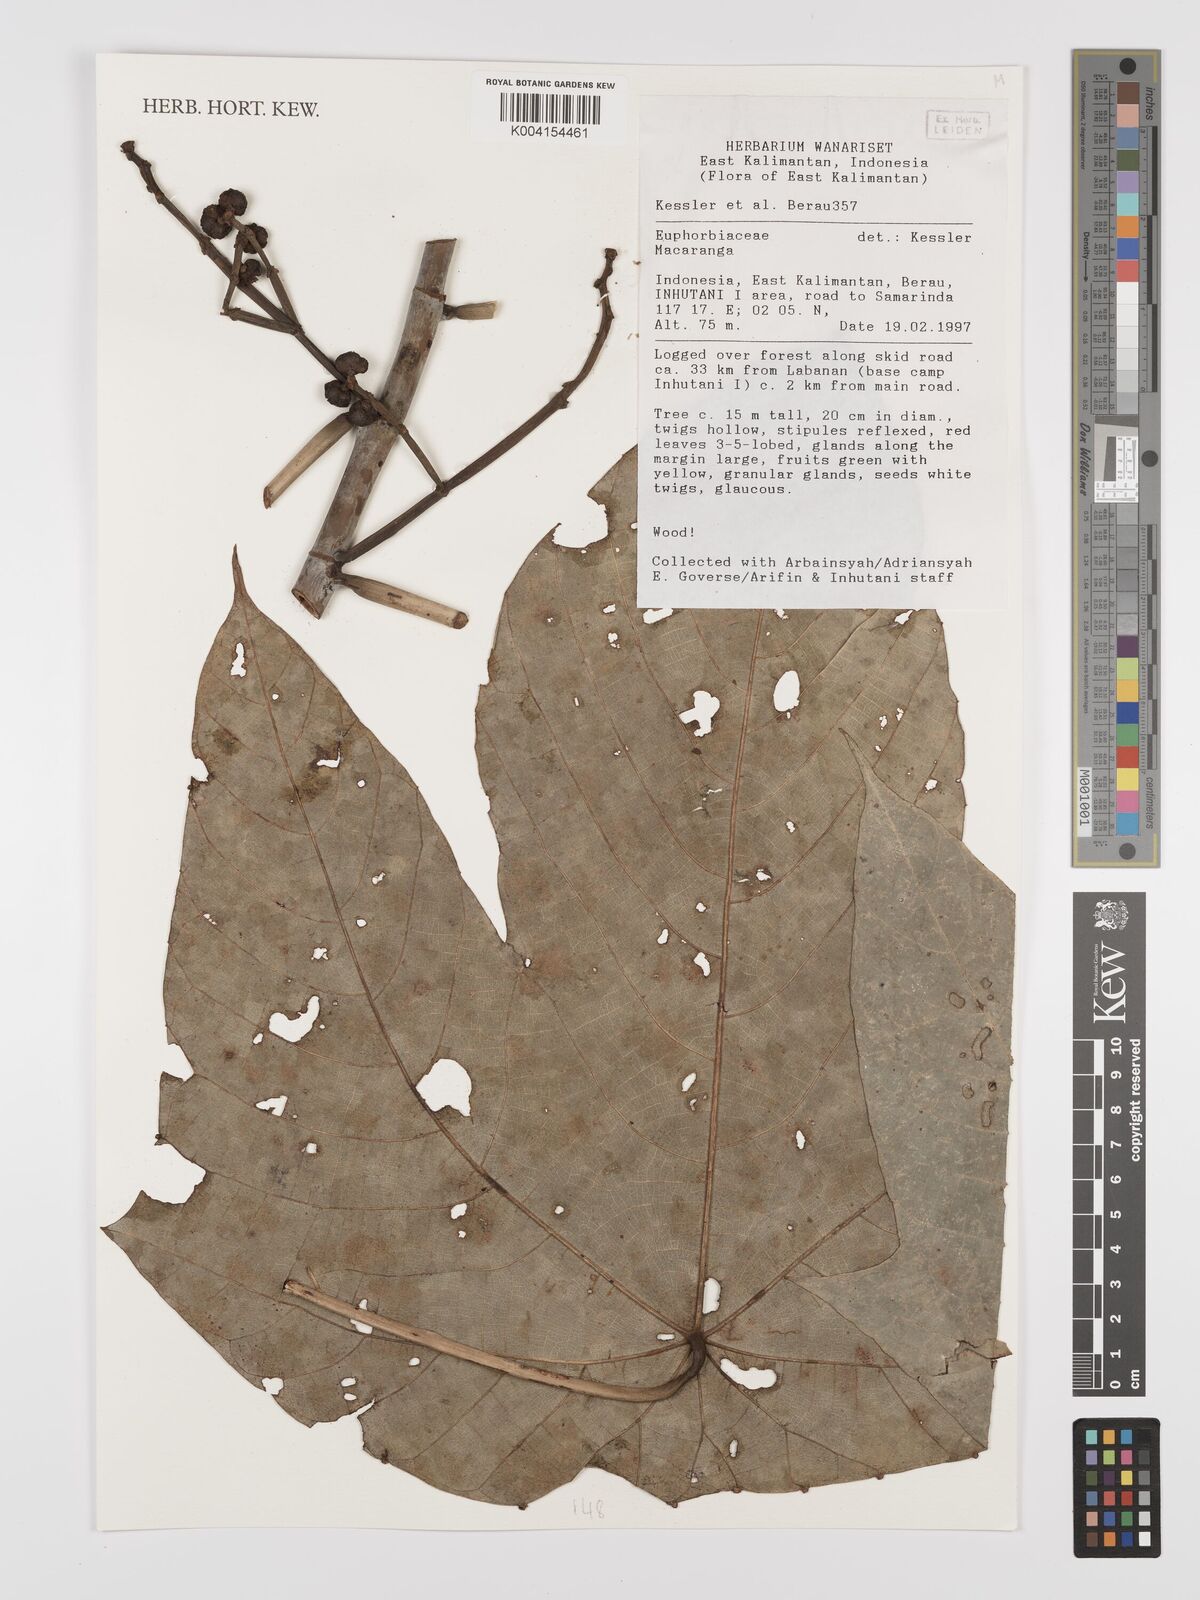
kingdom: Plantae
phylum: Tracheophyta
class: Magnoliopsida
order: Malpighiales
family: Euphorbiaceae
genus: Macaranga
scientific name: Macaranga
